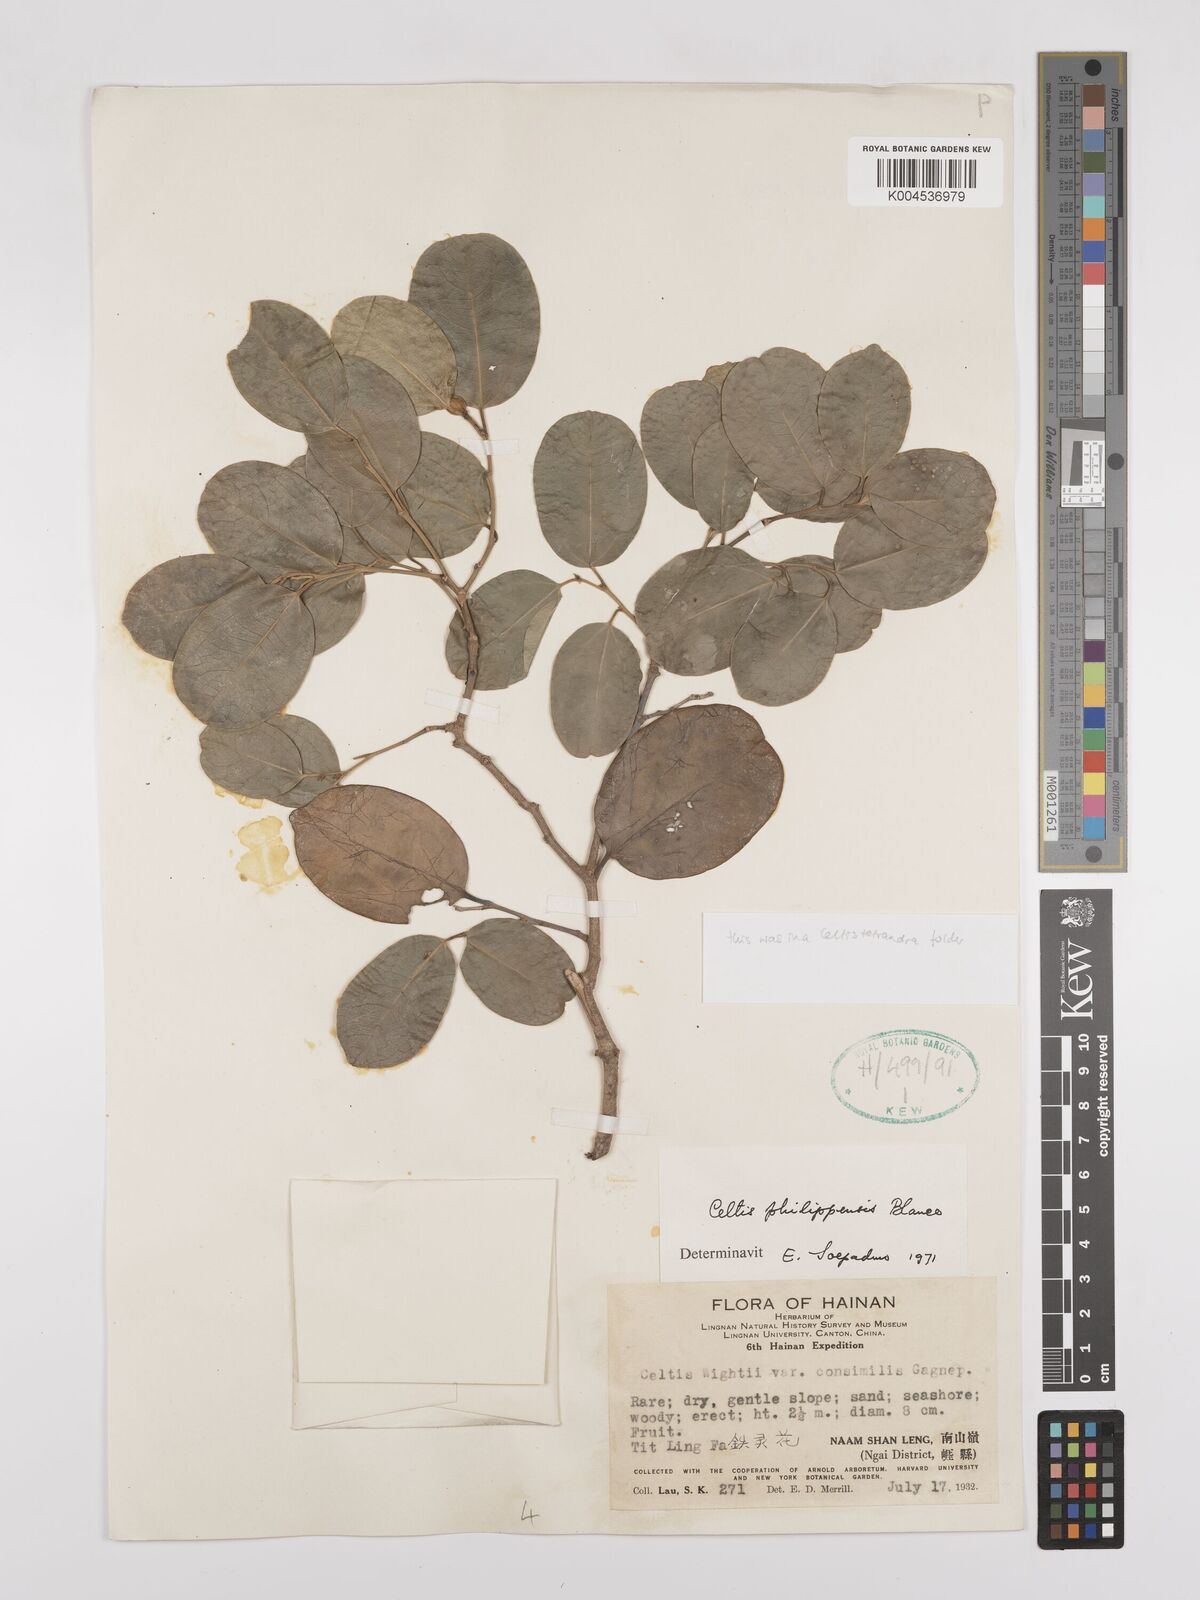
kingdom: Plantae
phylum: Tracheophyta
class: Magnoliopsida
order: Rosales
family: Cannabaceae
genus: Celtis
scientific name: Celtis philippensis
